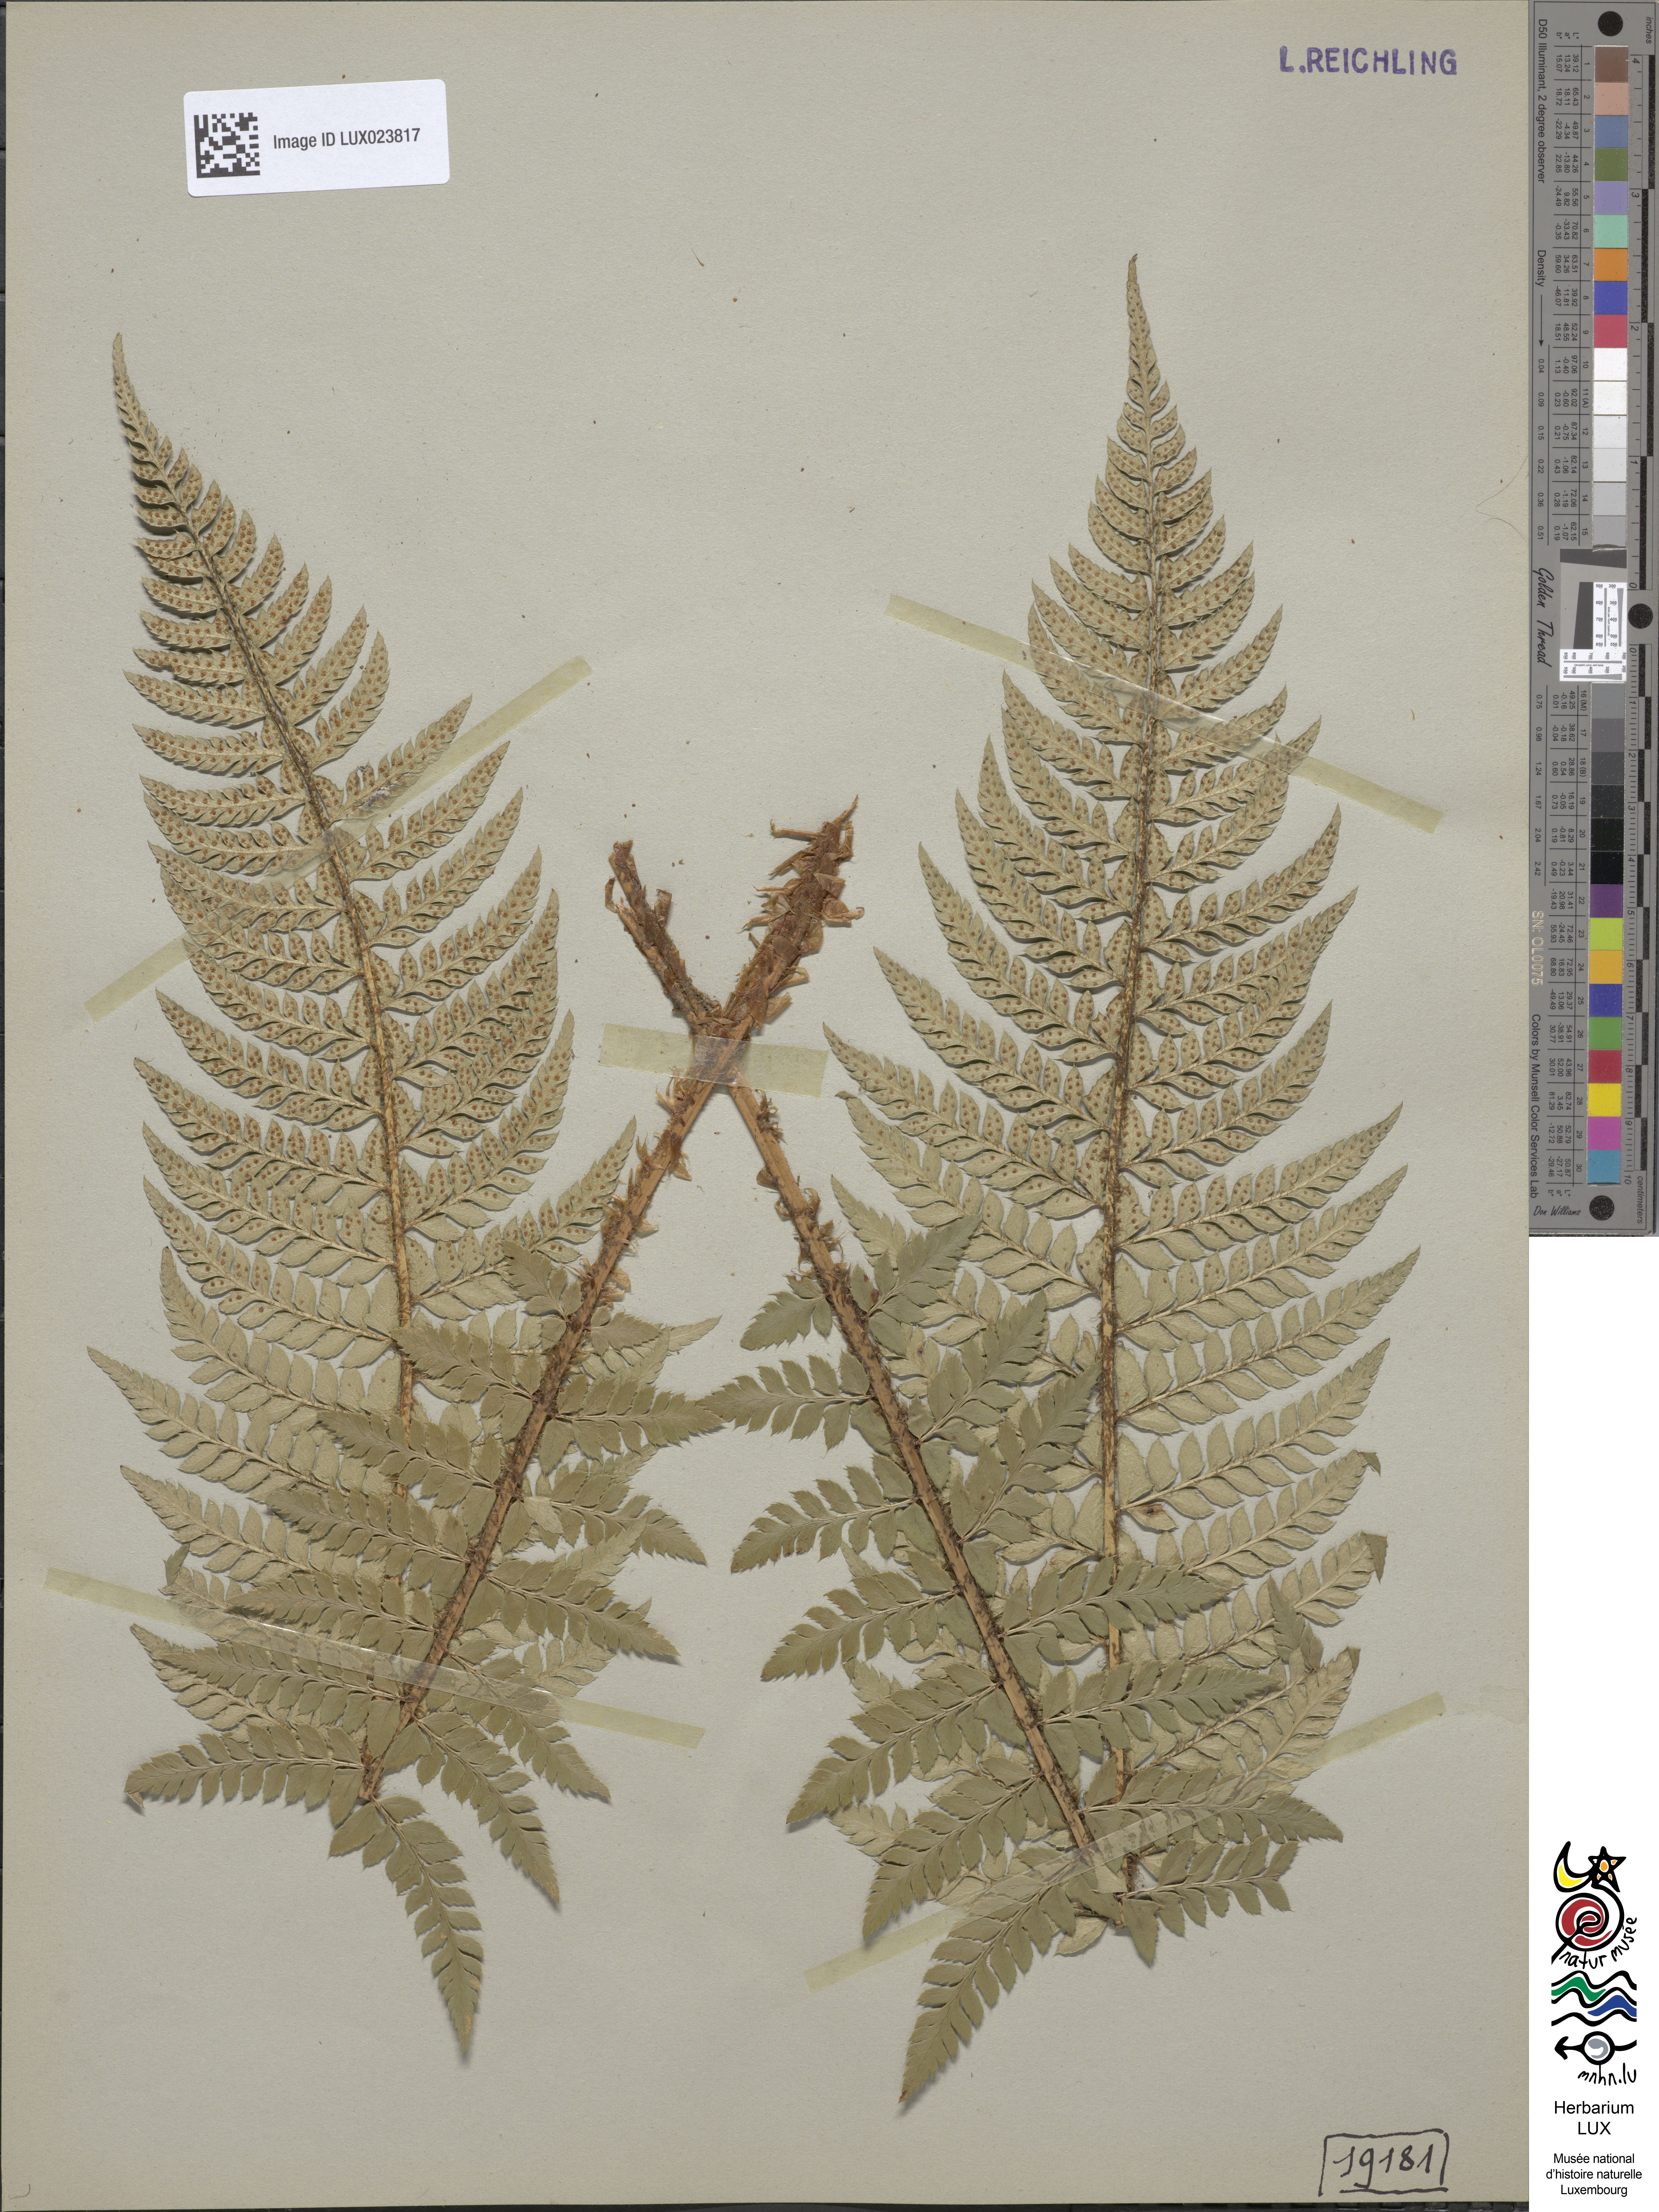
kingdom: Plantae
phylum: Tracheophyta
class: Polypodiopsida
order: Polypodiales
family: Dryopteridaceae
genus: Polystichum
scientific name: Polystichum
